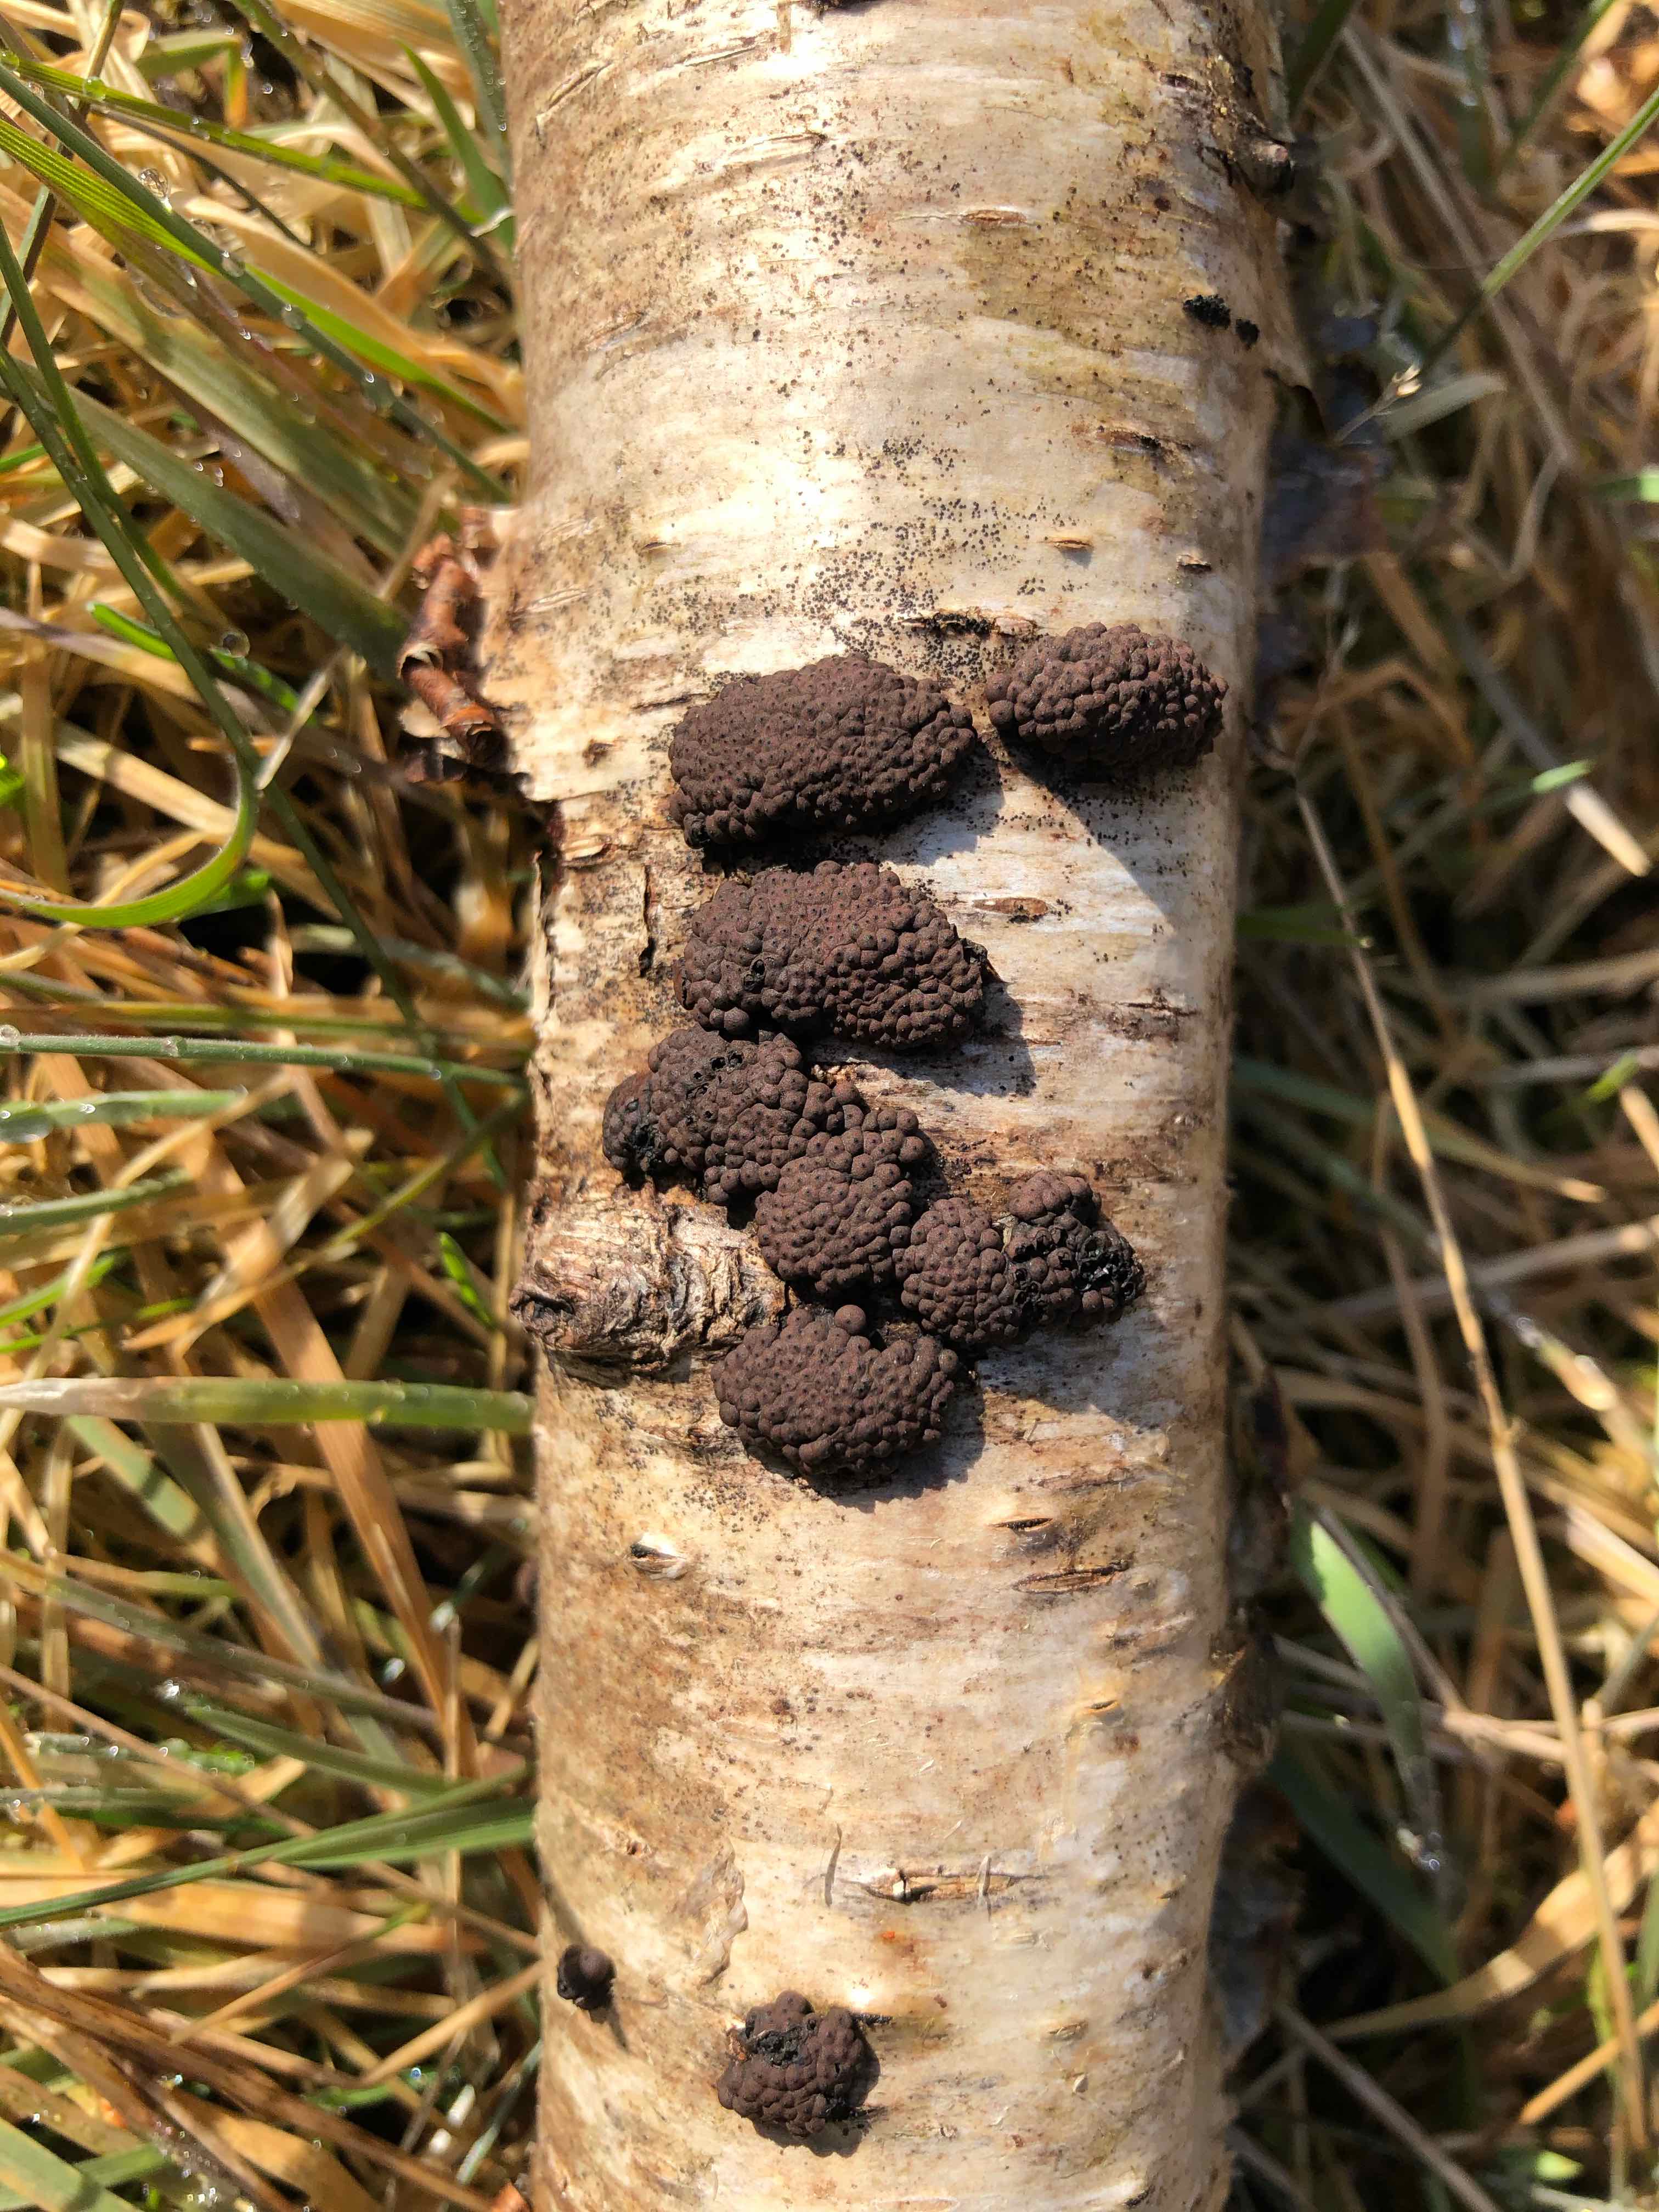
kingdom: Fungi
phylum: Ascomycota
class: Sordariomycetes
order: Xylariales
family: Hypoxylaceae
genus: Jackrogersella
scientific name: Jackrogersella multiformis
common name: foranderlig kulbær
